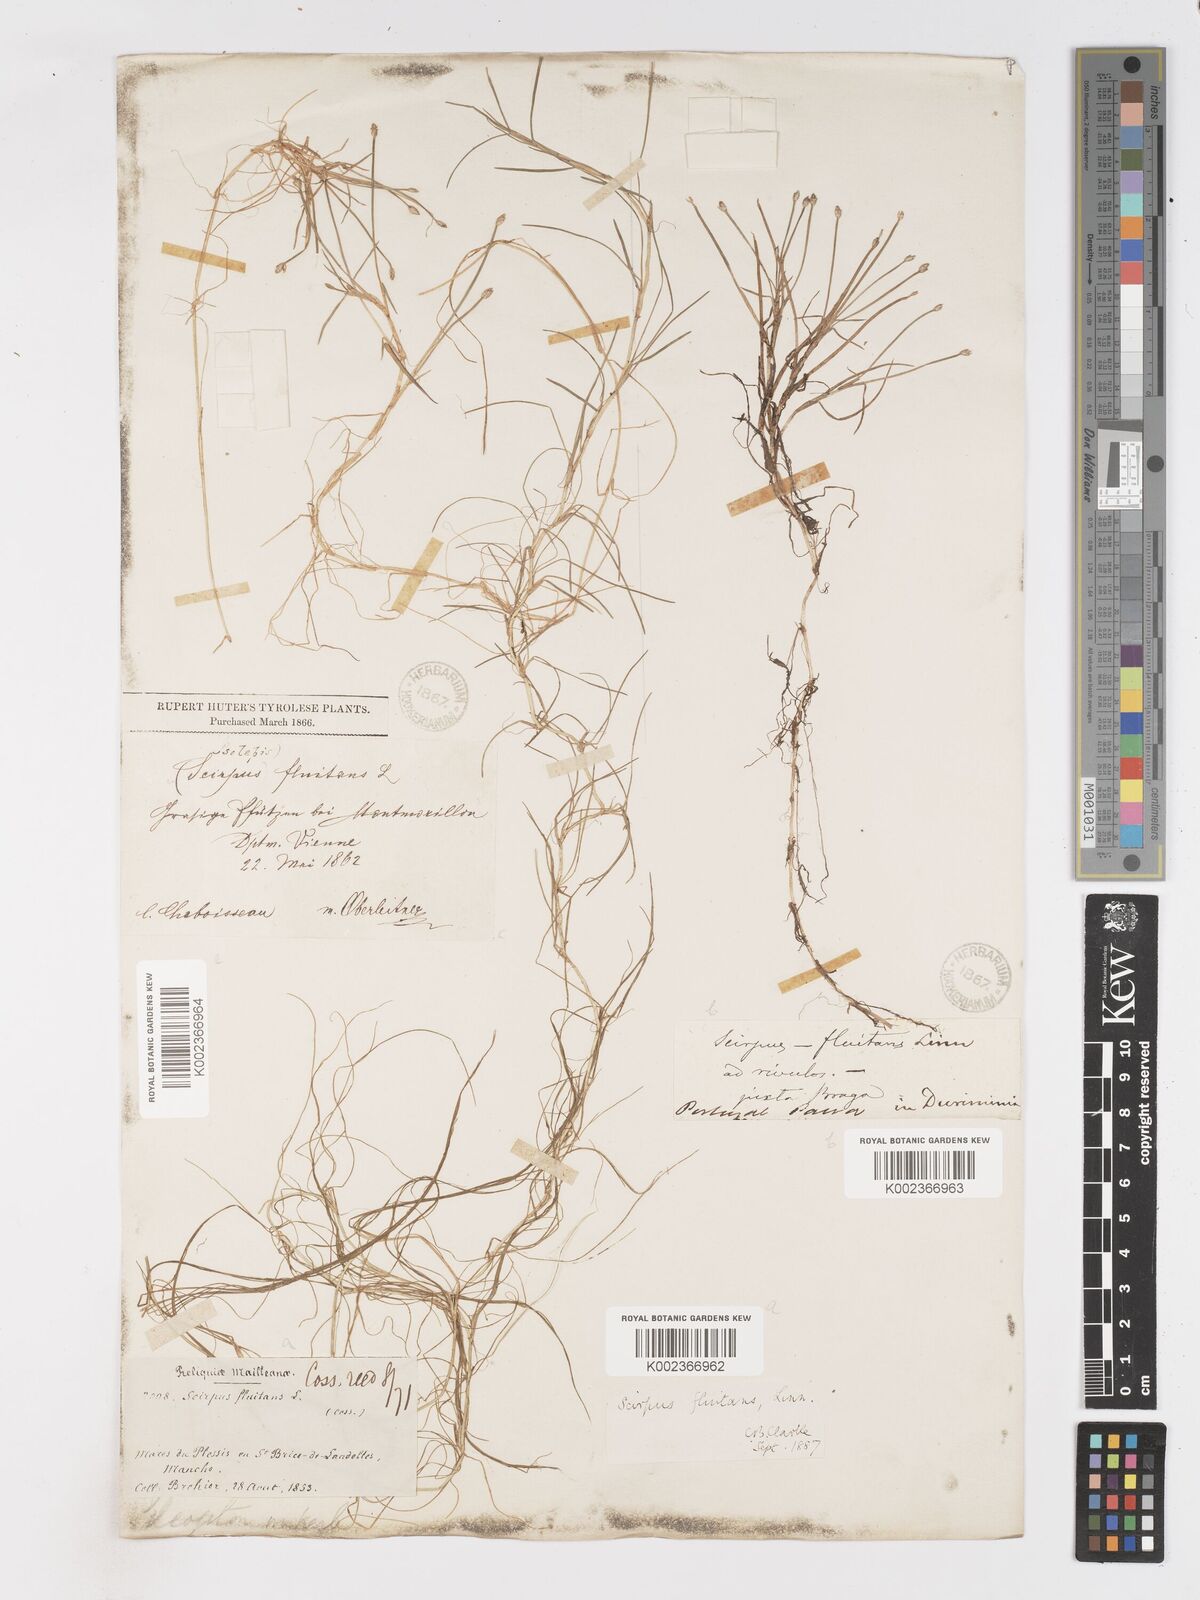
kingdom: Plantae
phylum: Tracheophyta
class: Liliopsida
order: Poales
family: Cyperaceae
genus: Isolepis
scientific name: Isolepis fluitans
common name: Floating club-rush
